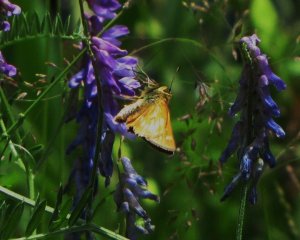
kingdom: Animalia
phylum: Arthropoda
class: Insecta
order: Lepidoptera
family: Hesperiidae
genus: Polites
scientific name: Polites
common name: Long Dash Skipper
